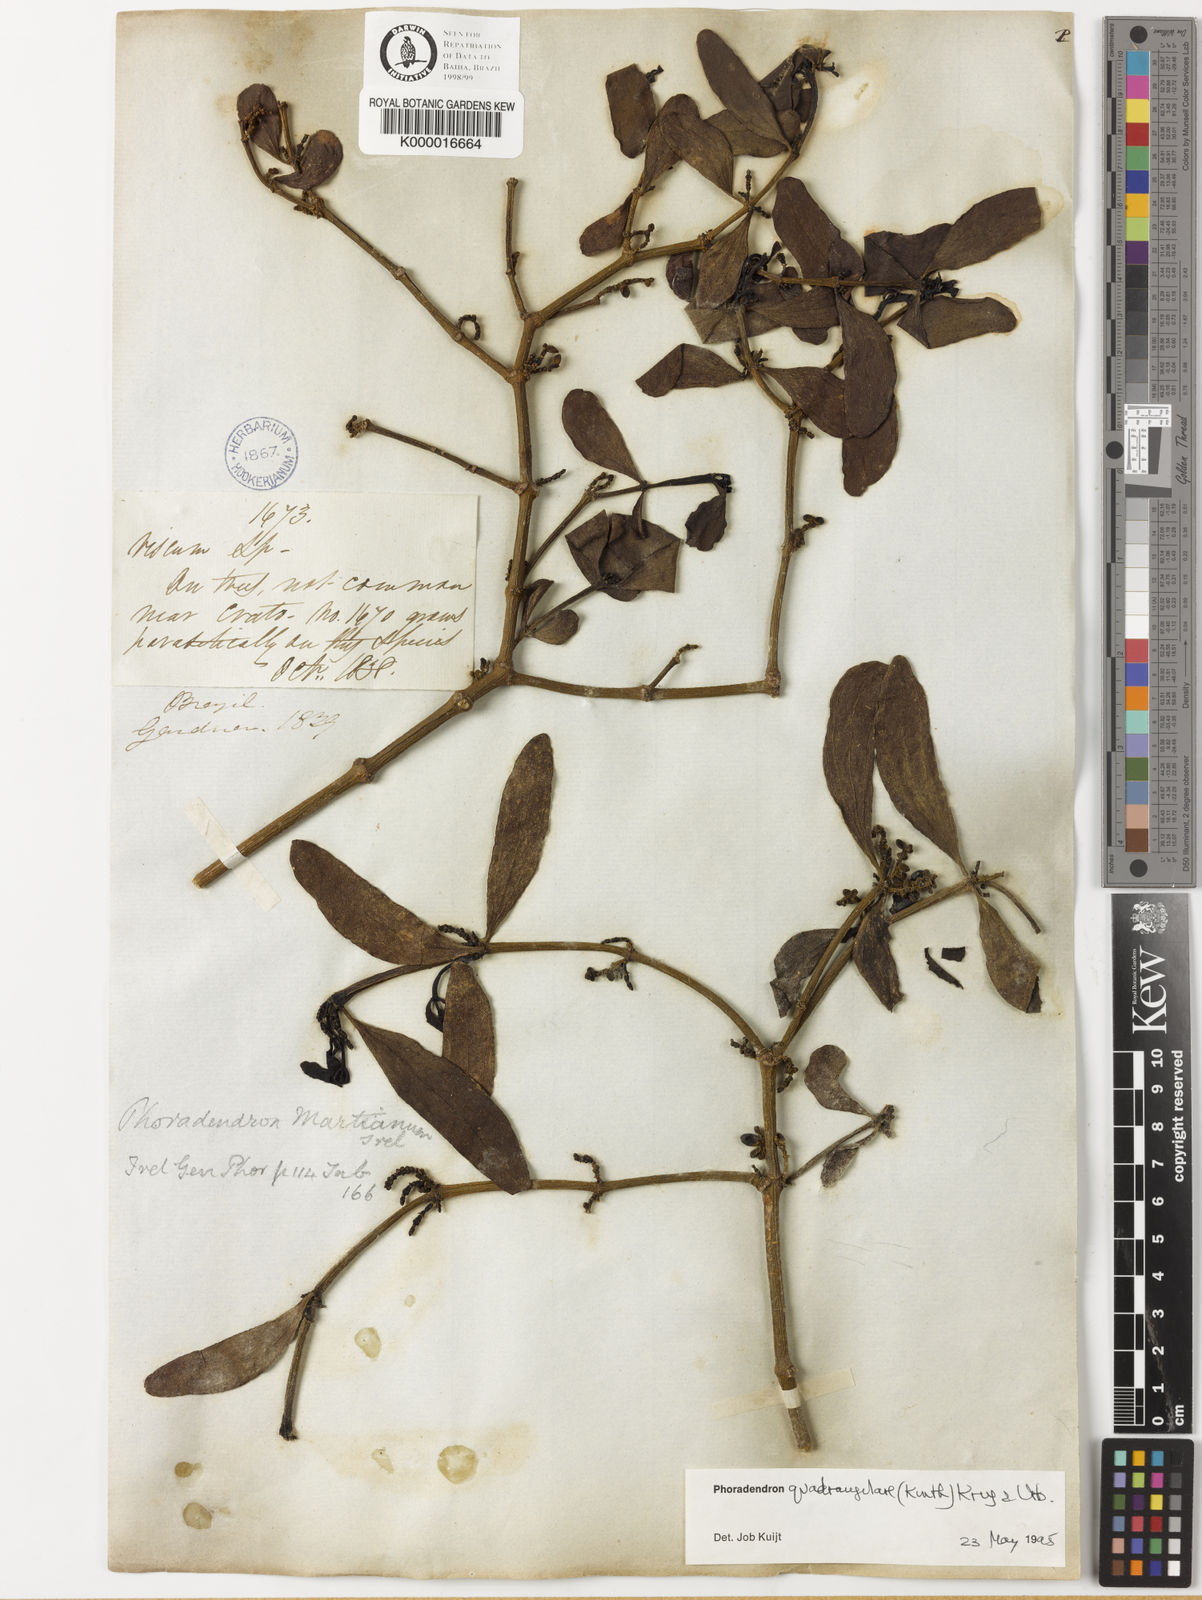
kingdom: Plantae
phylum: Tracheophyta
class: Magnoliopsida
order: Santalales
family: Viscaceae
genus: Phoradendron
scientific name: Phoradendron
